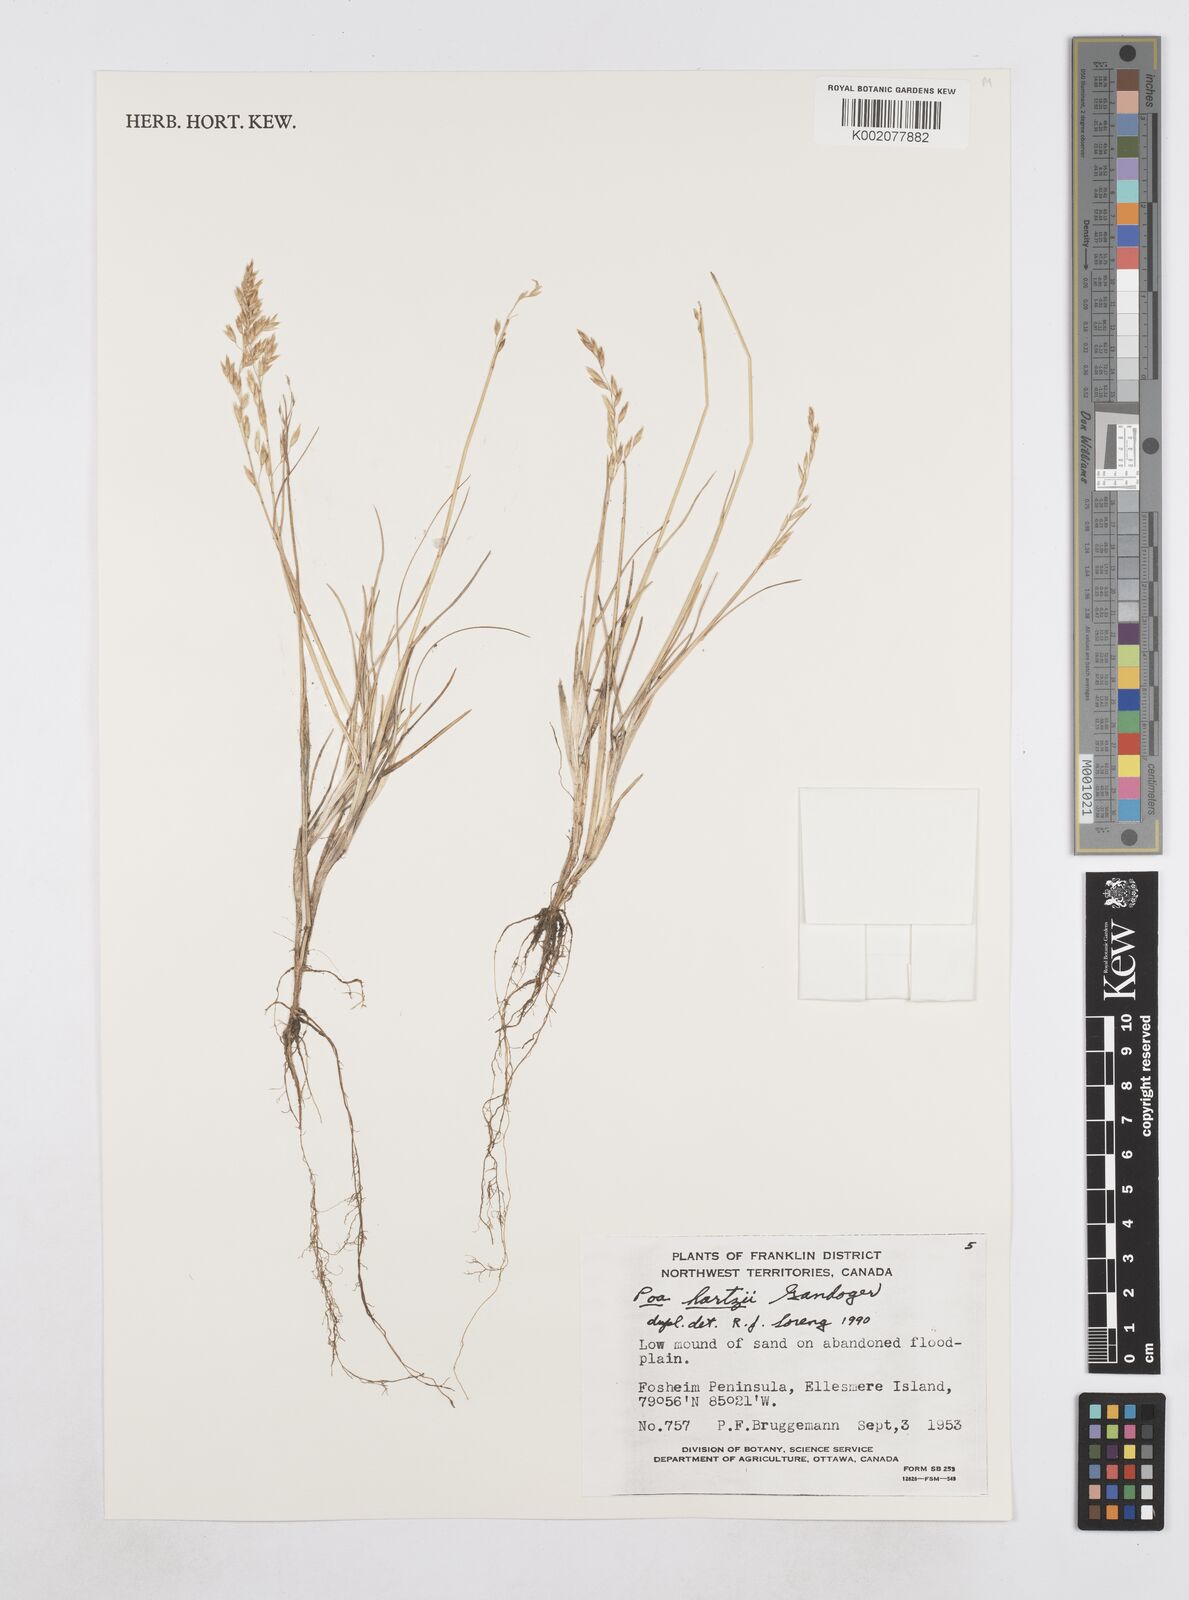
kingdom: Plantae
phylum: Tracheophyta
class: Liliopsida
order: Poales
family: Poaceae
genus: Poa
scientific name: Poa hartzii
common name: Hartz's bluegrass
